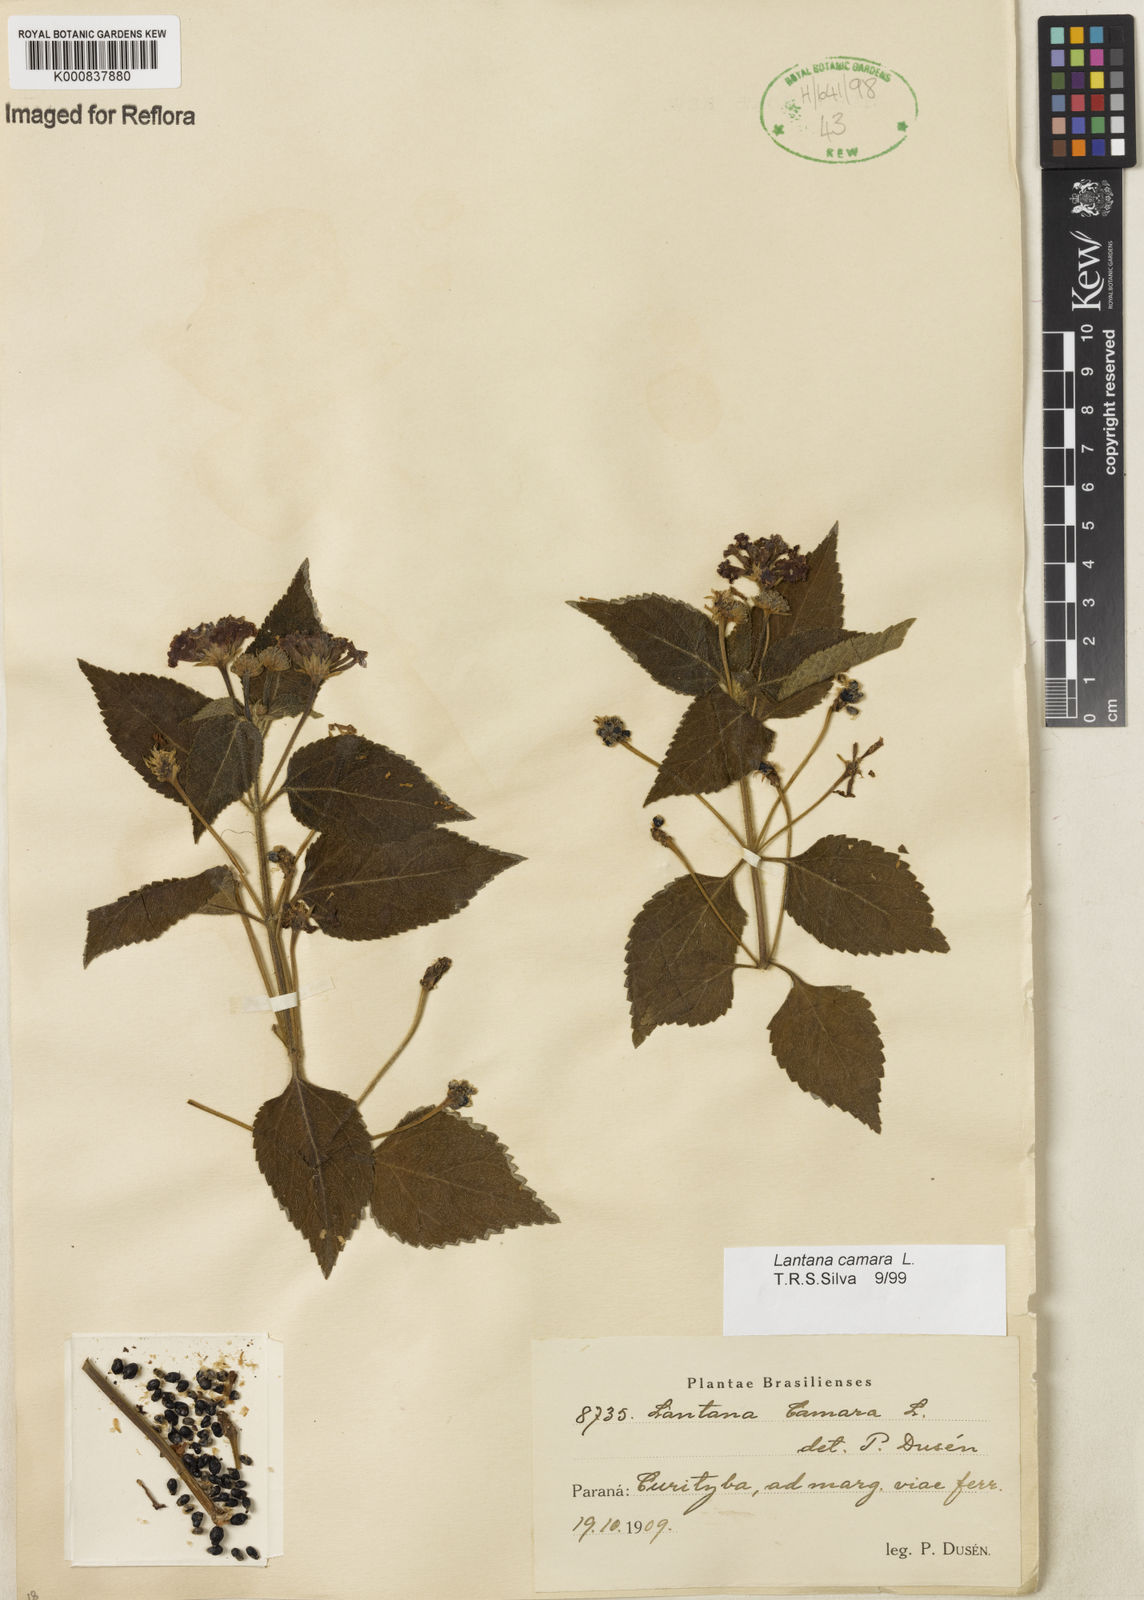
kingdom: Plantae
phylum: Tracheophyta
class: Magnoliopsida
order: Lamiales
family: Verbenaceae
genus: Lantana
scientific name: Lantana camara
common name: Lantana
